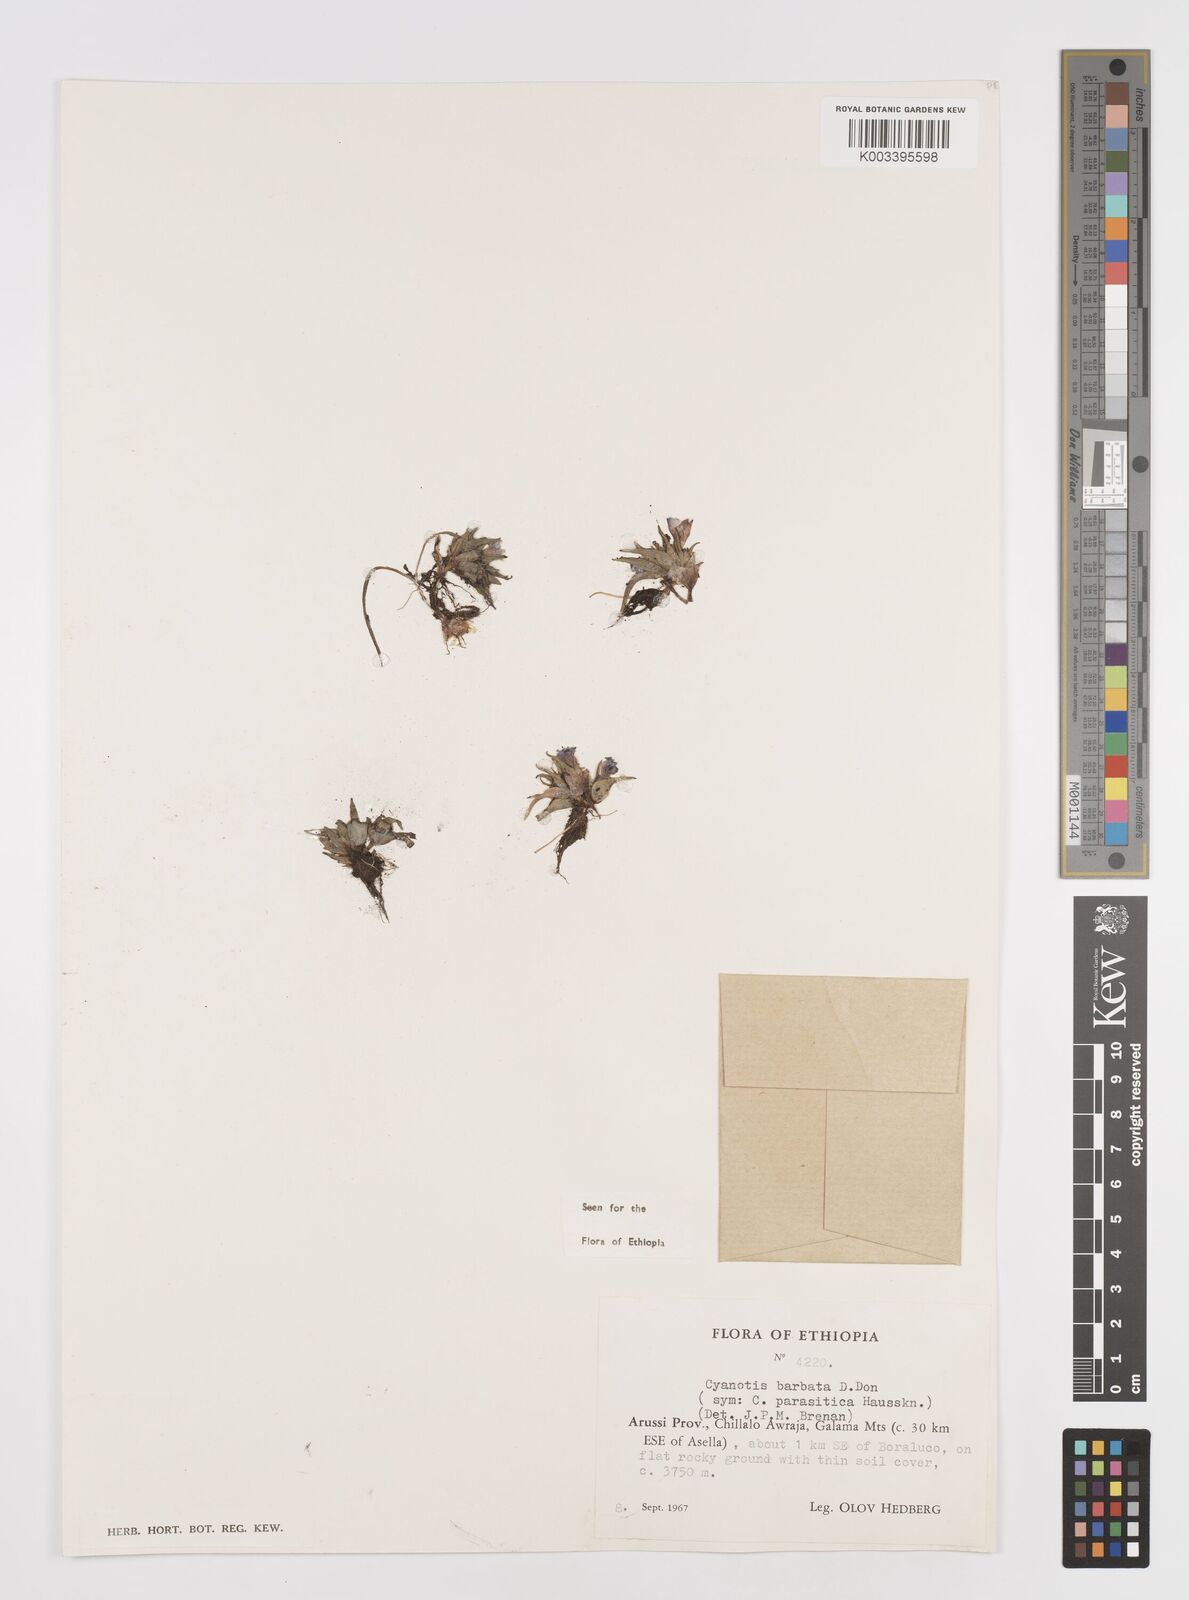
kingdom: Plantae
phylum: Tracheophyta
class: Liliopsida
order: Commelinales
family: Commelinaceae
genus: Cyanotis
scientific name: Cyanotis vaga
